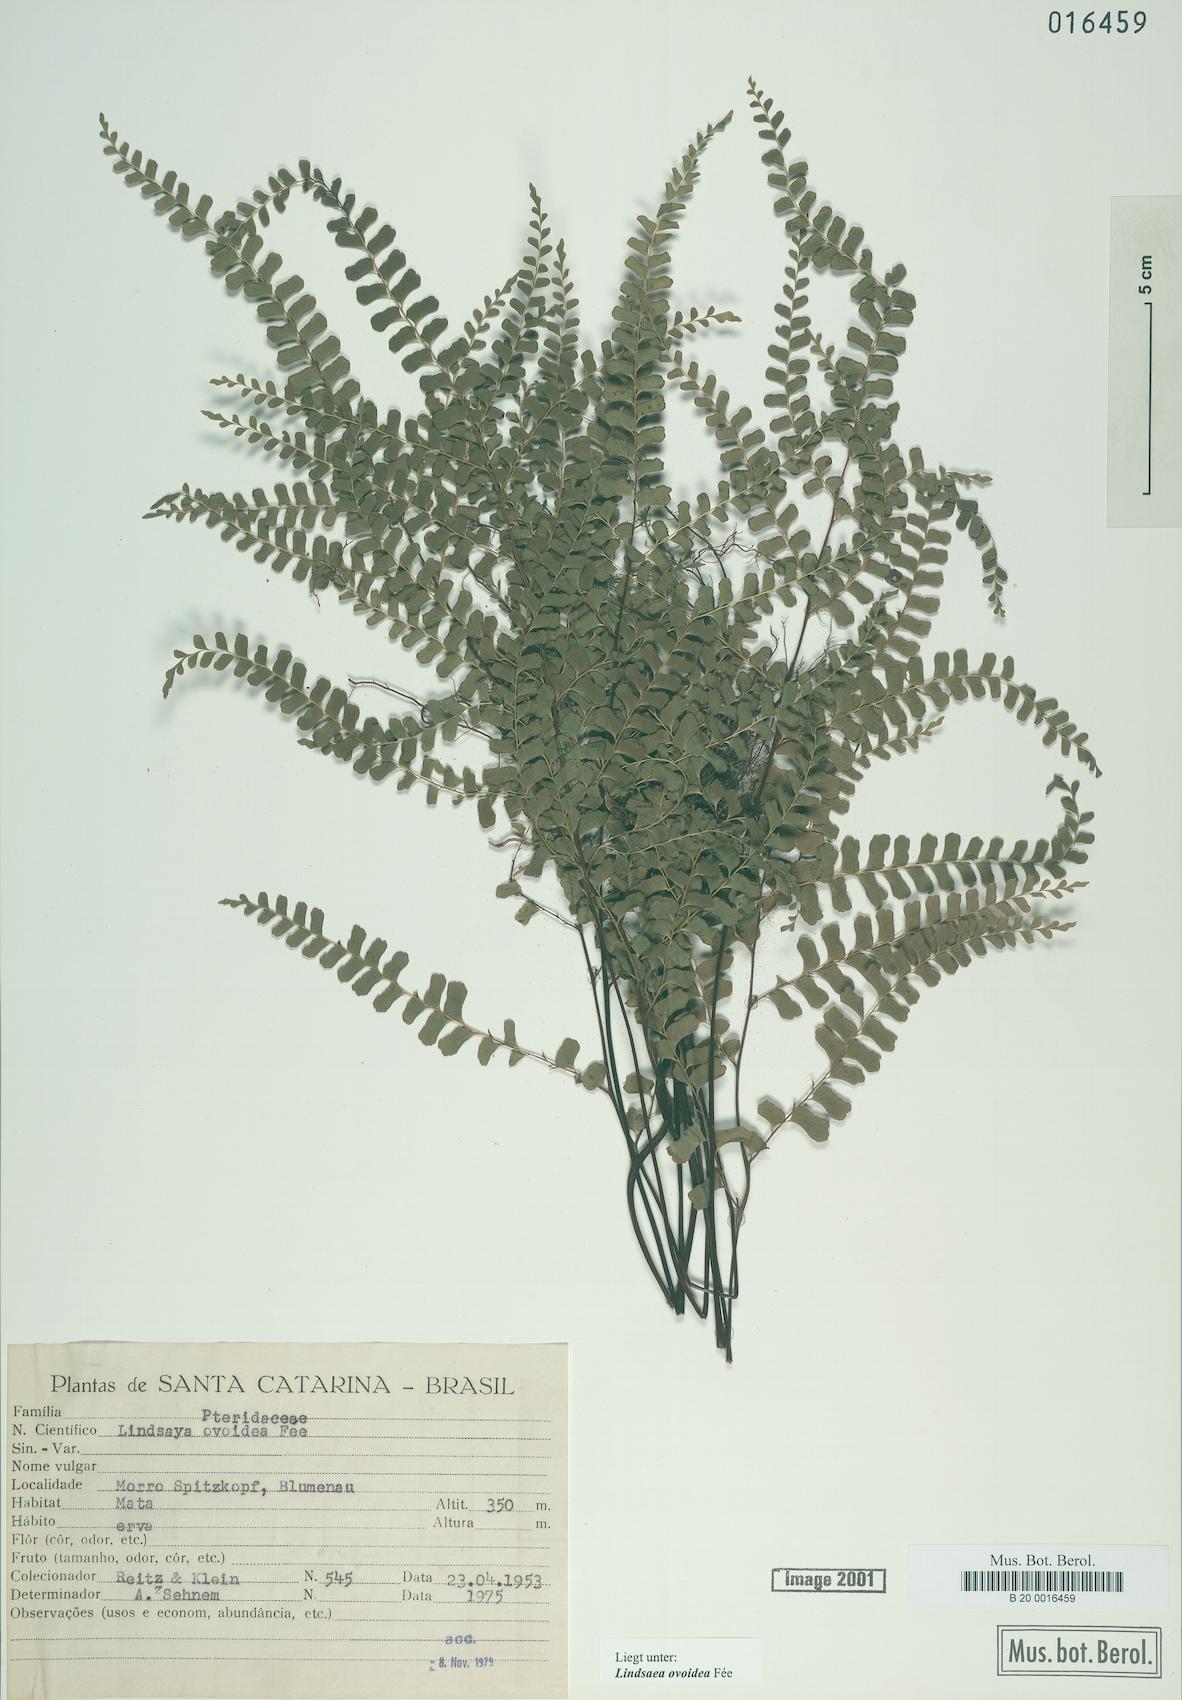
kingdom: Plantae
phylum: Tracheophyta
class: Polypodiopsida
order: Polypodiales
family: Lindsaeaceae
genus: Lindsaea
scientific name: Lindsaea ovoidea
